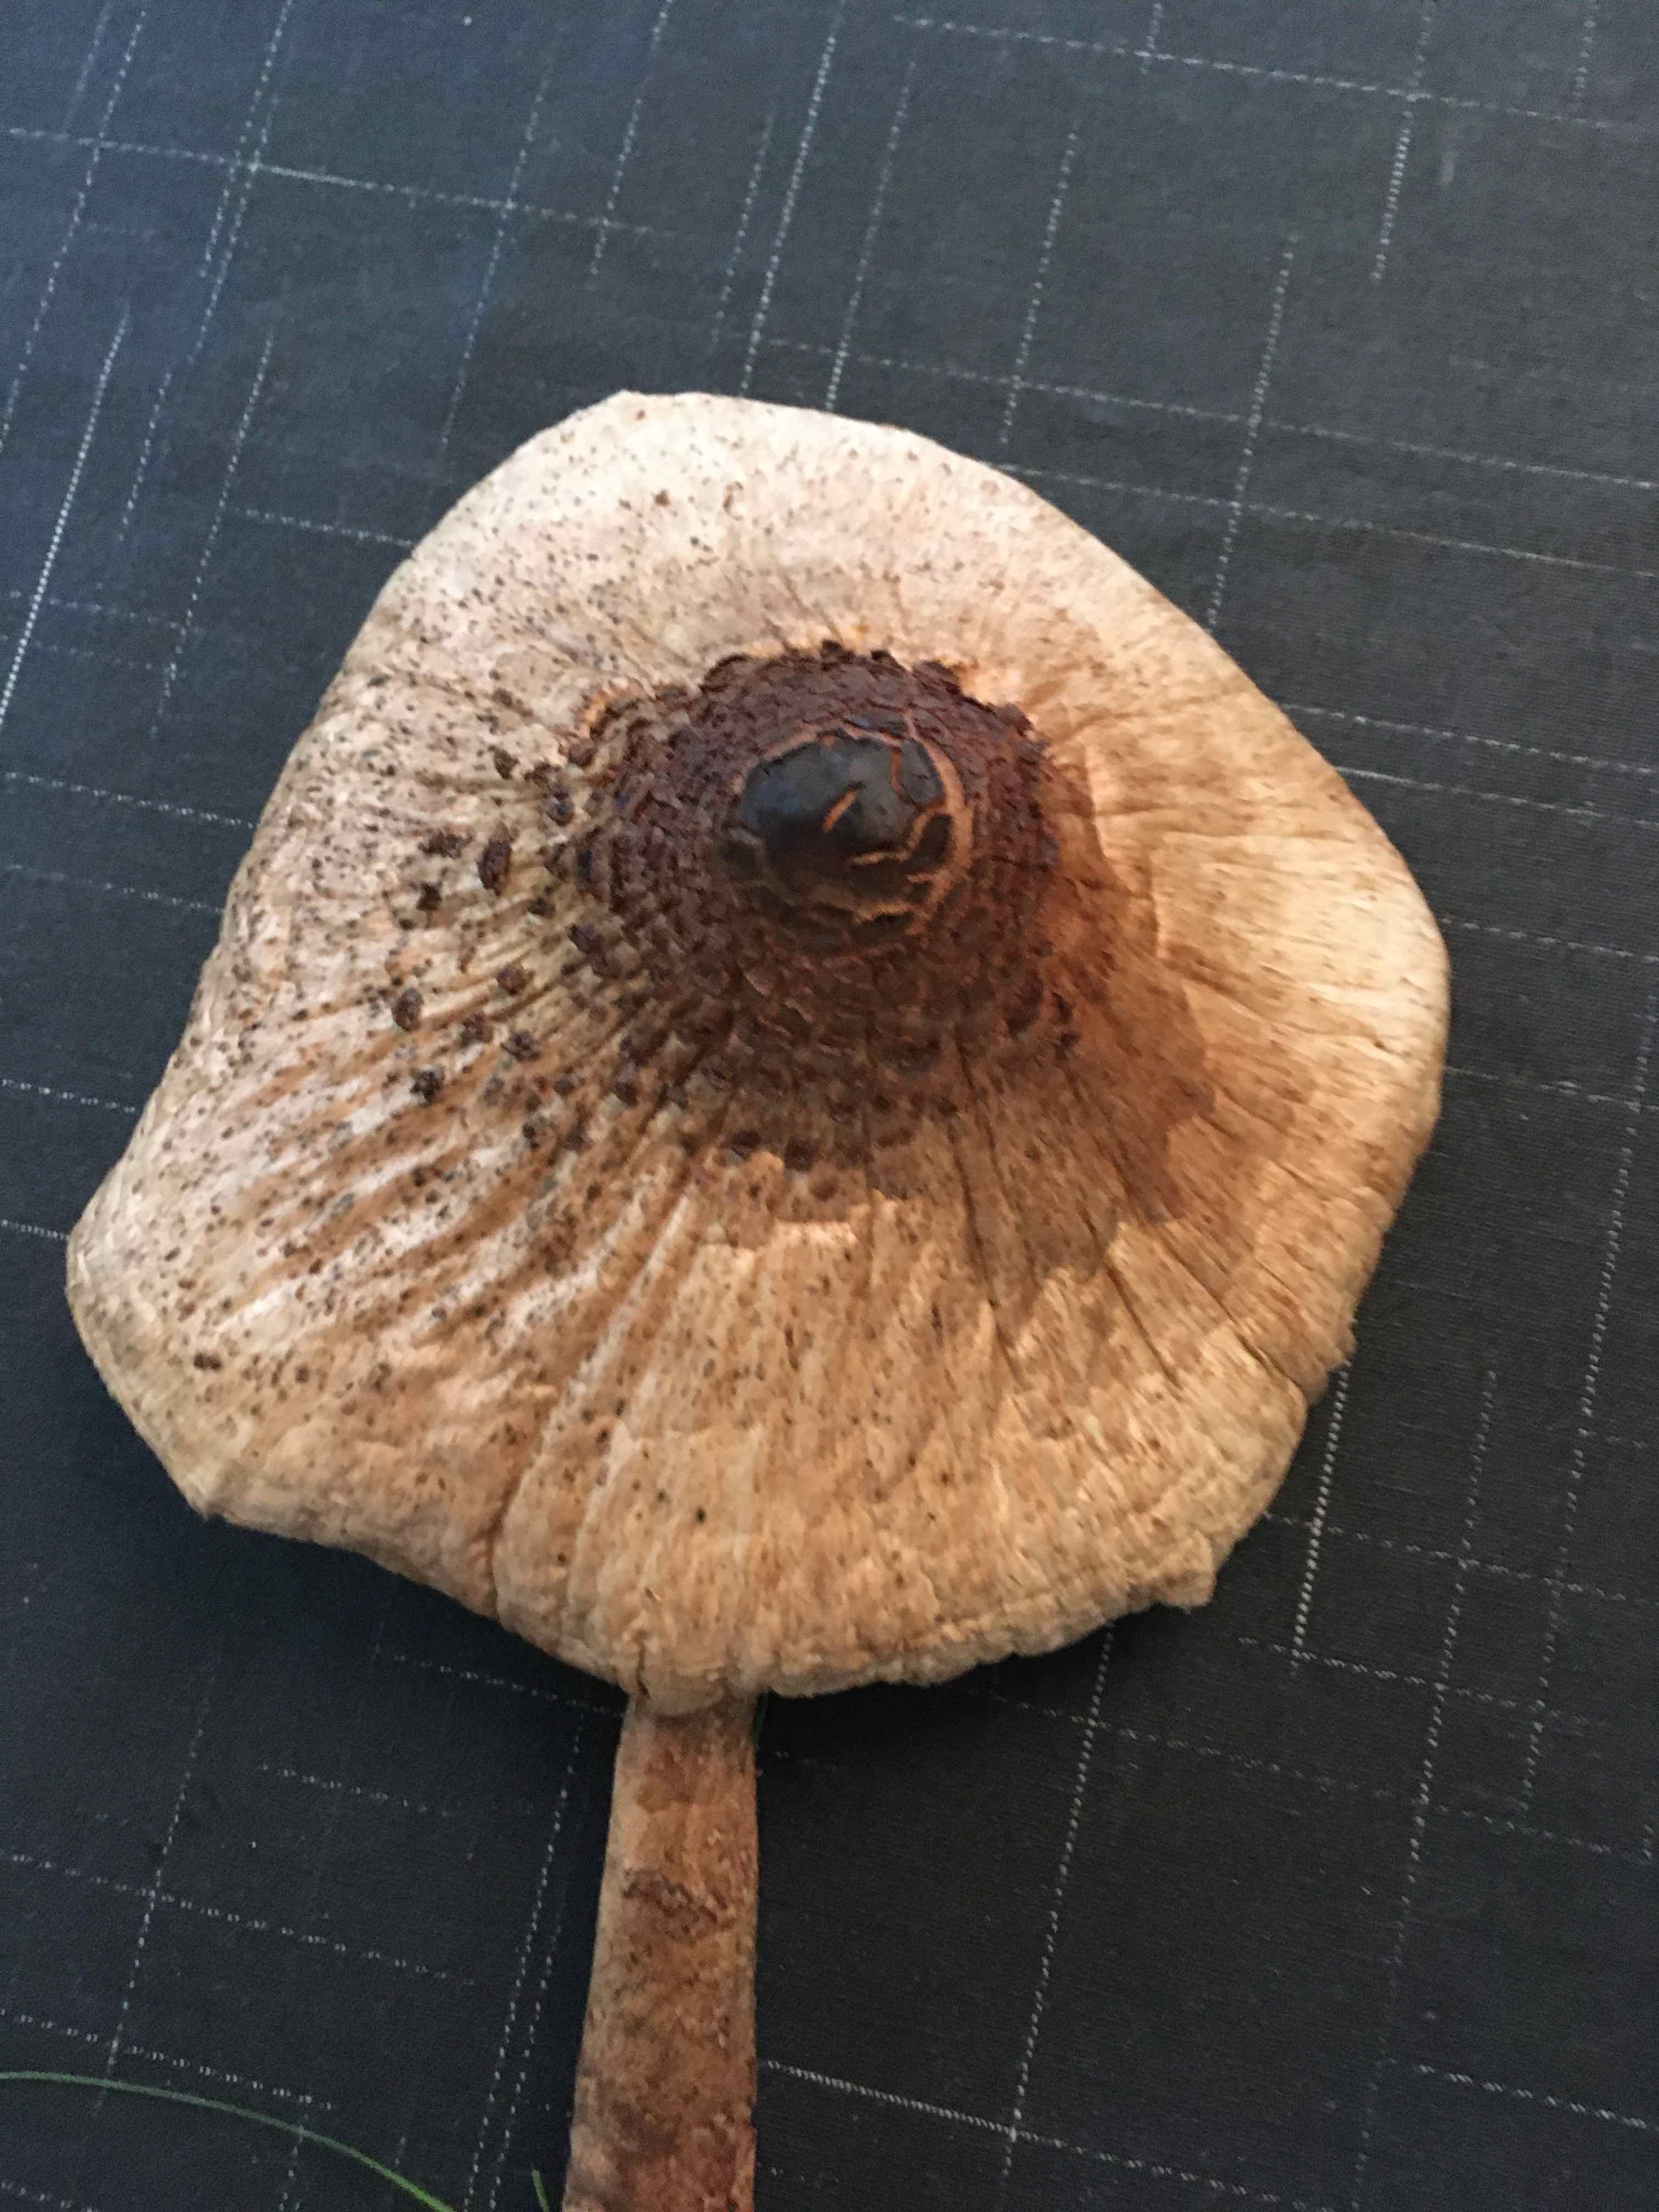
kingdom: Fungi
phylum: Basidiomycota
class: Agaricomycetes
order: Agaricales
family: Agaricaceae
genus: Macrolepiota
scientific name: Macrolepiota mastoidea
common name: puklet kæmpeparasolhat
